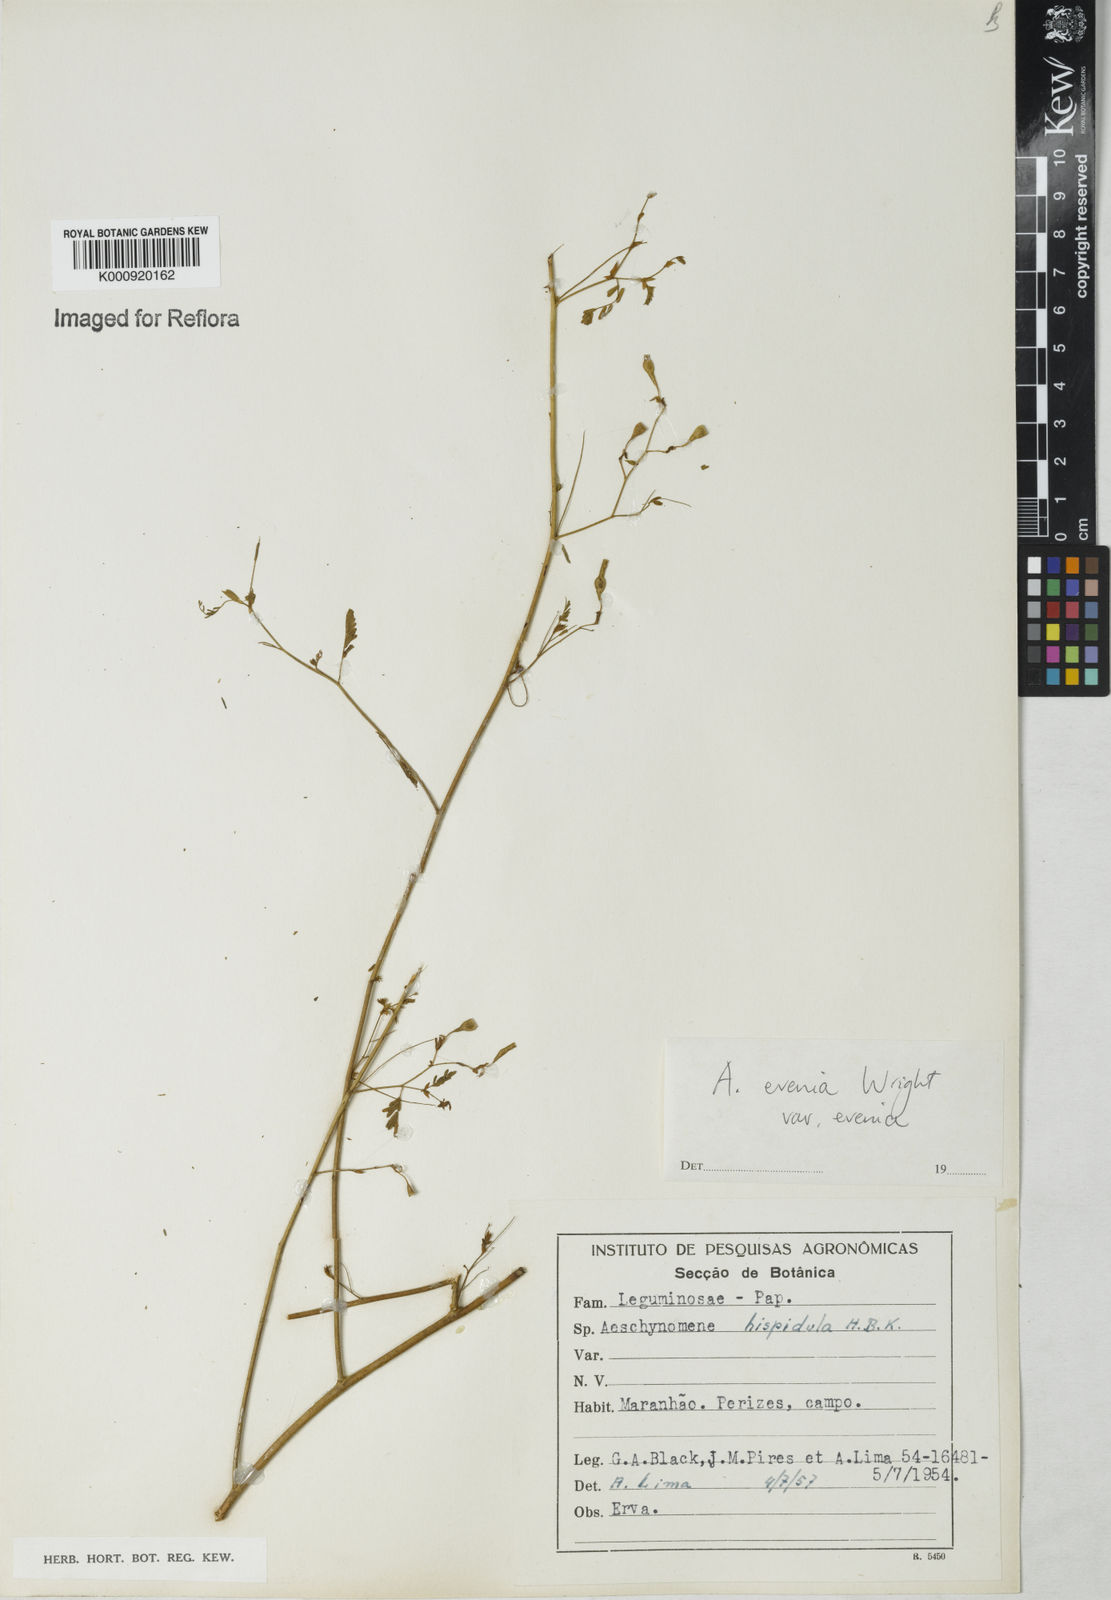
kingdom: Plantae
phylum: Tracheophyta
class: Magnoliopsida
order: Fabales
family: Fabaceae
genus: Aeschynomene
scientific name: Aeschynomene evenia
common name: Shrubby jointvetch
